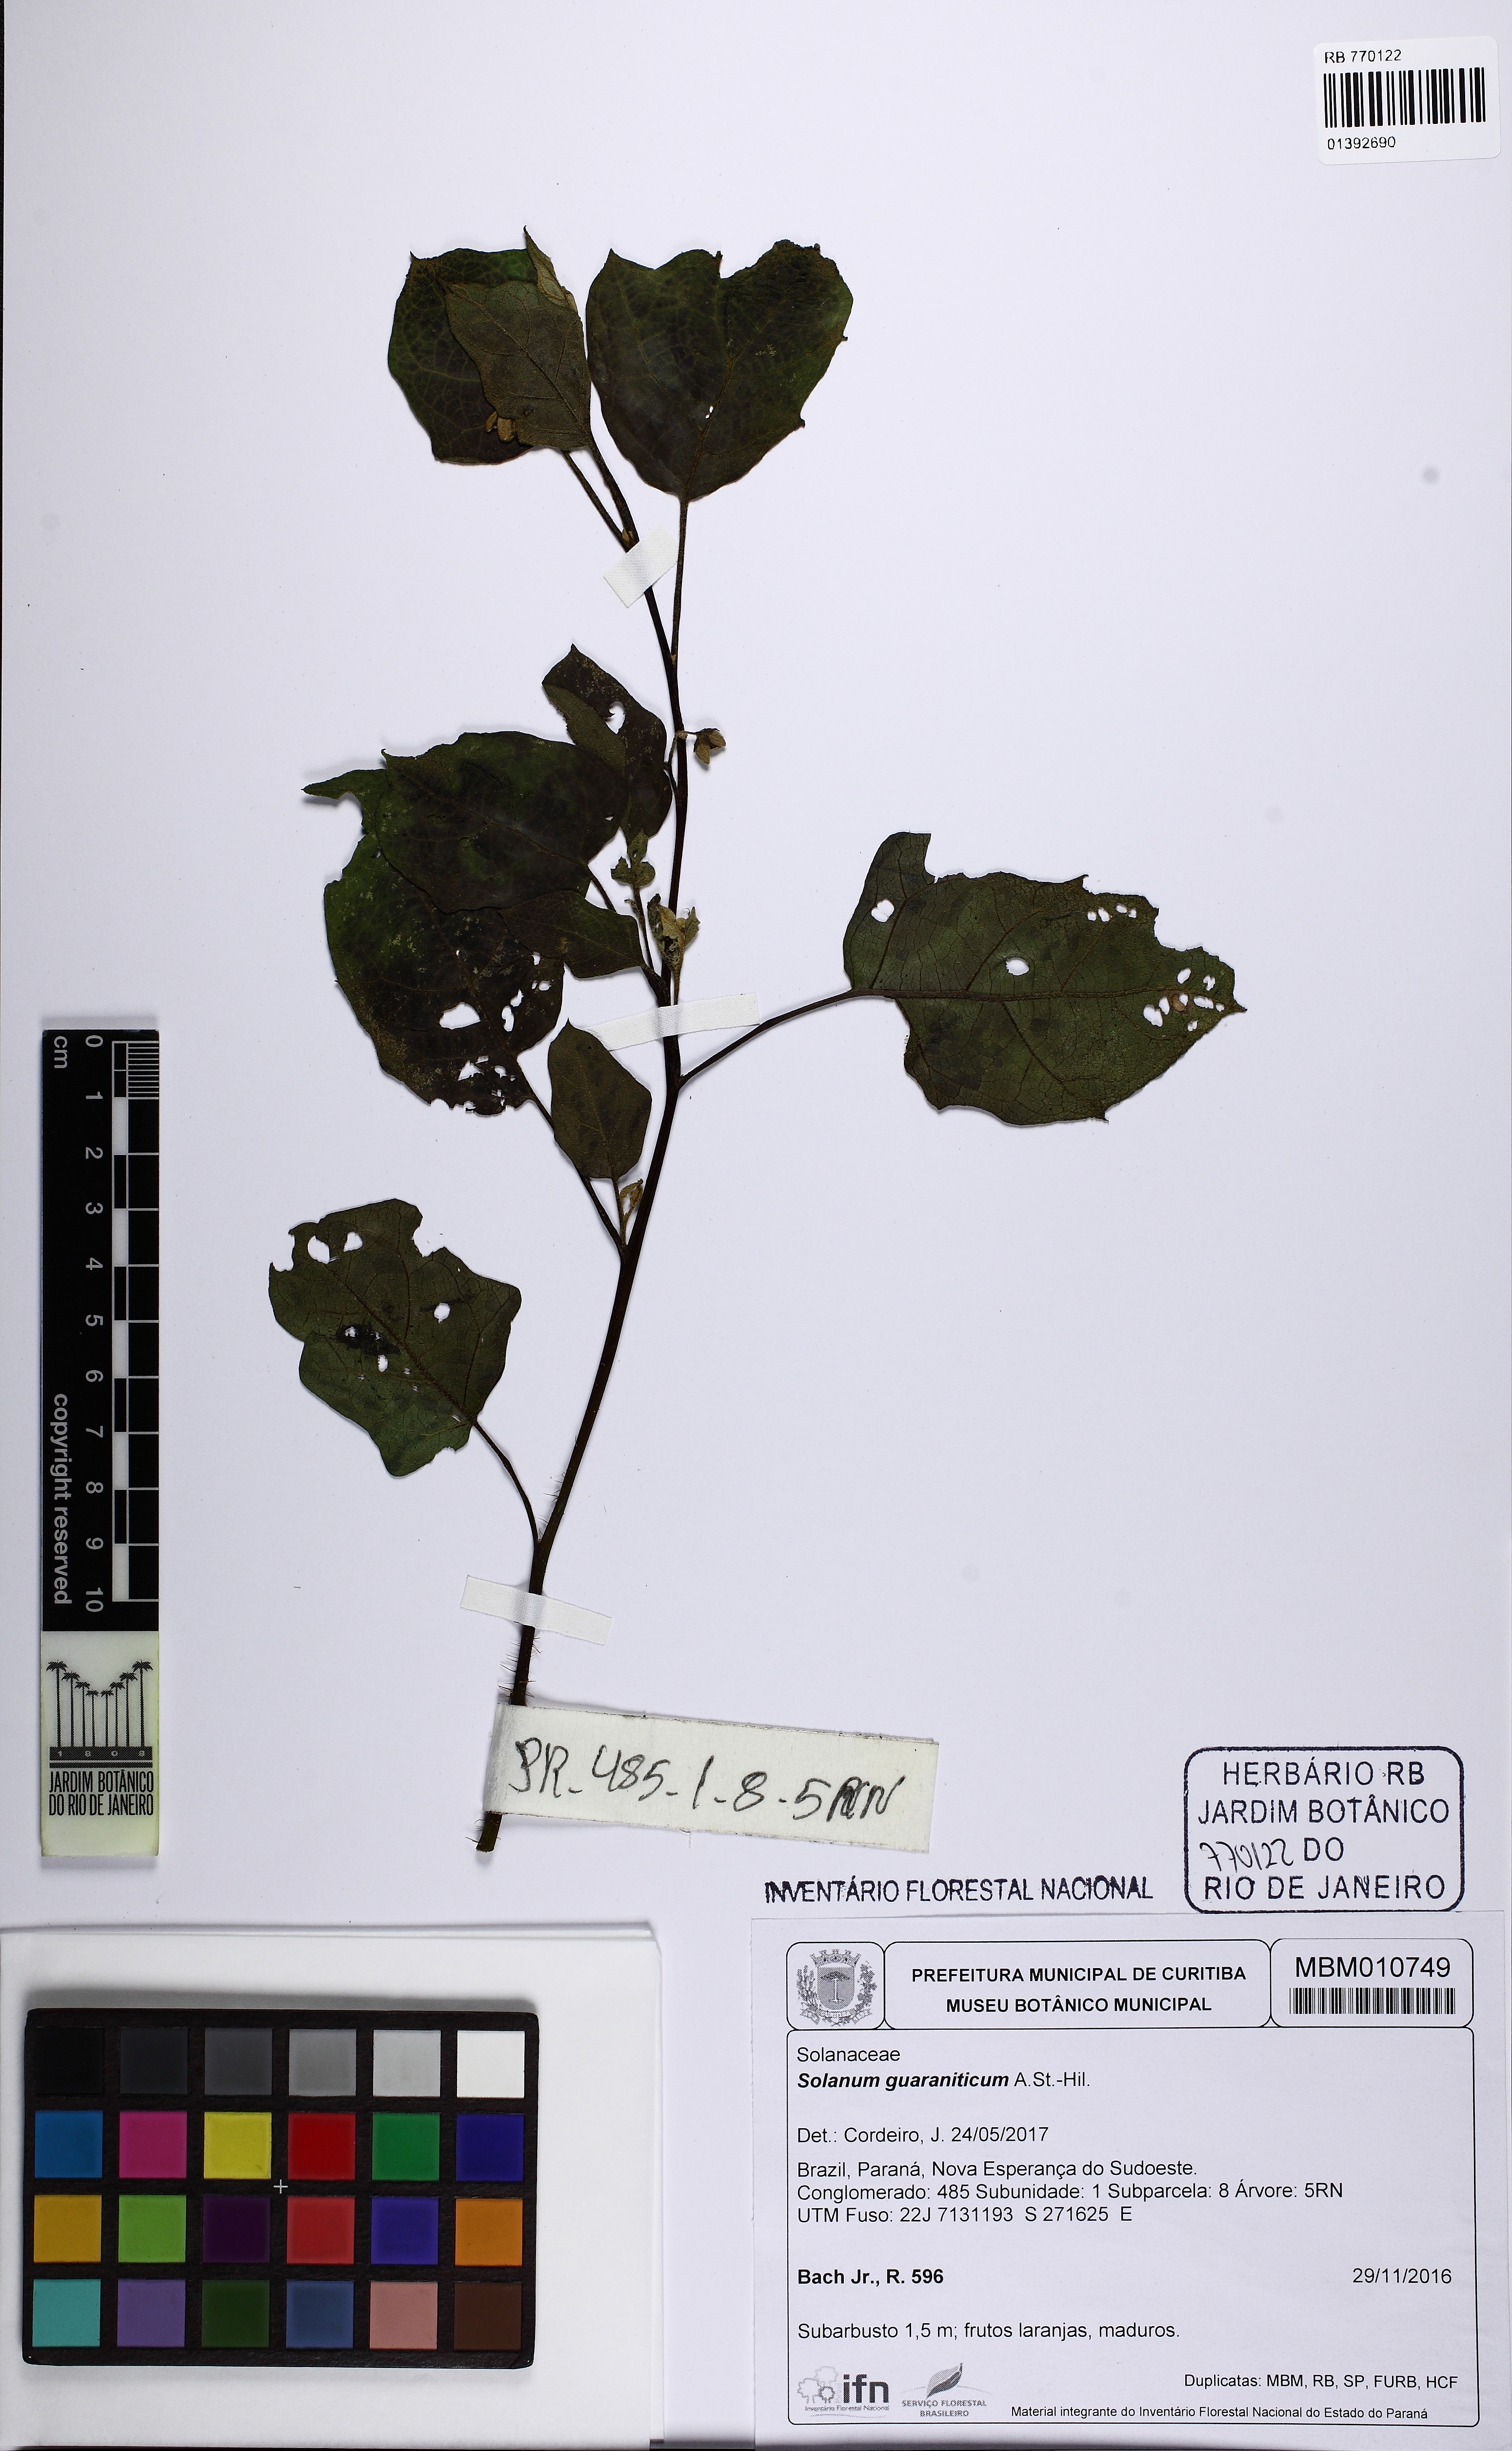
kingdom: Plantae
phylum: Tracheophyta
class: Magnoliopsida
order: Solanales
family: Solanaceae
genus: Solanum
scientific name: Solanum guaraniticum
